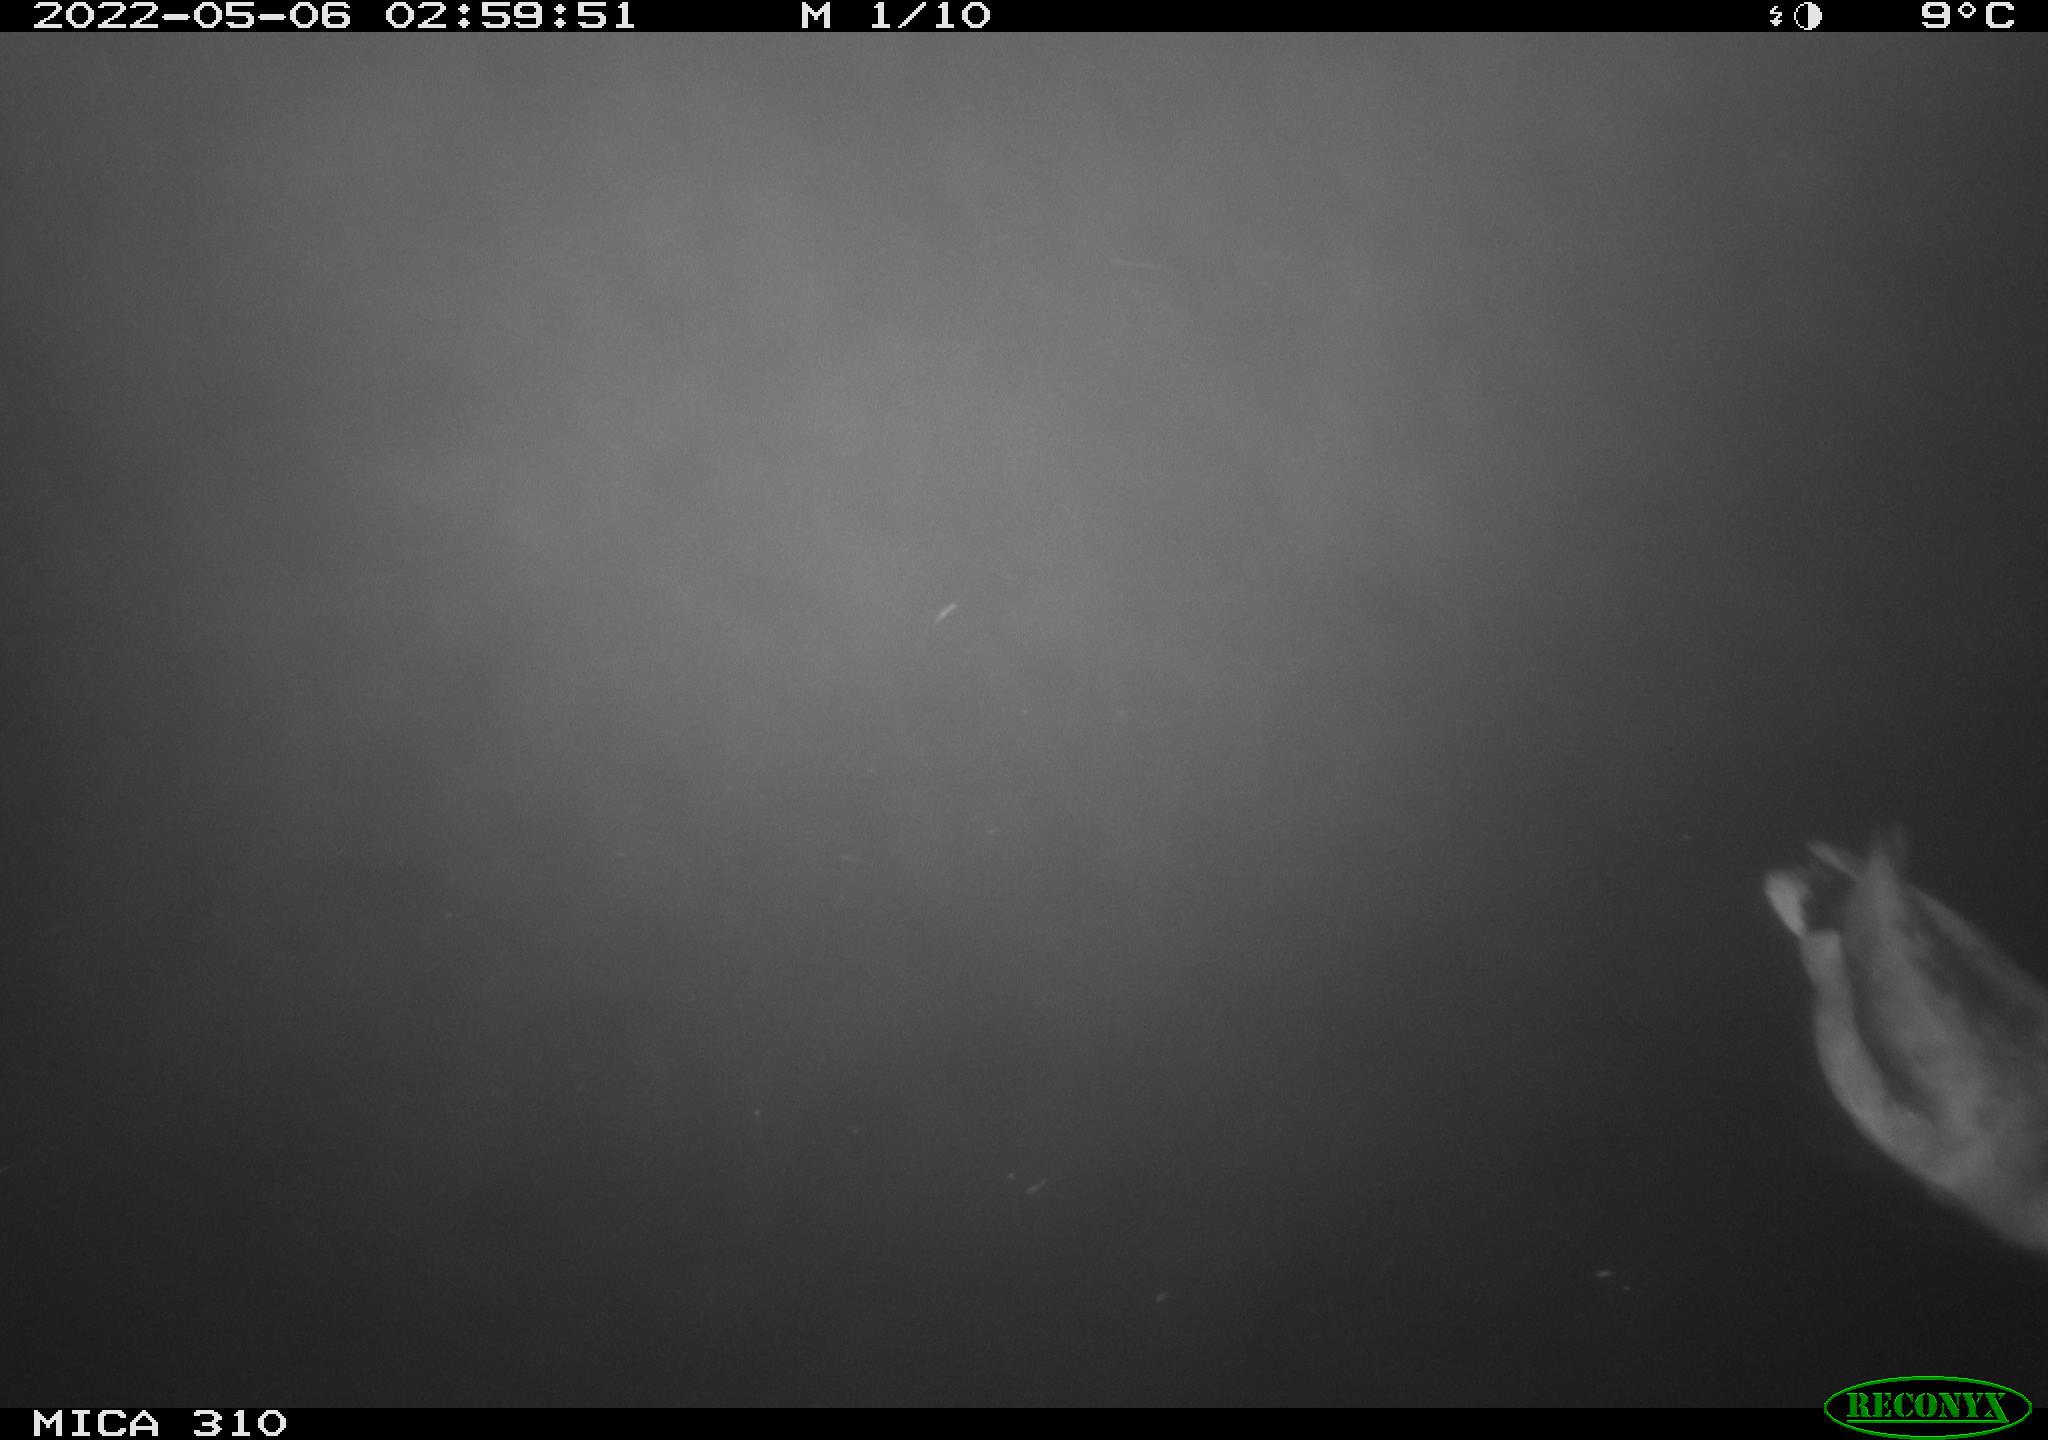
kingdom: Animalia
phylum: Chordata
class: Aves
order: Anseriformes
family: Anatidae
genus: Anas
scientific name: Anas platyrhynchos
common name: Mallard
